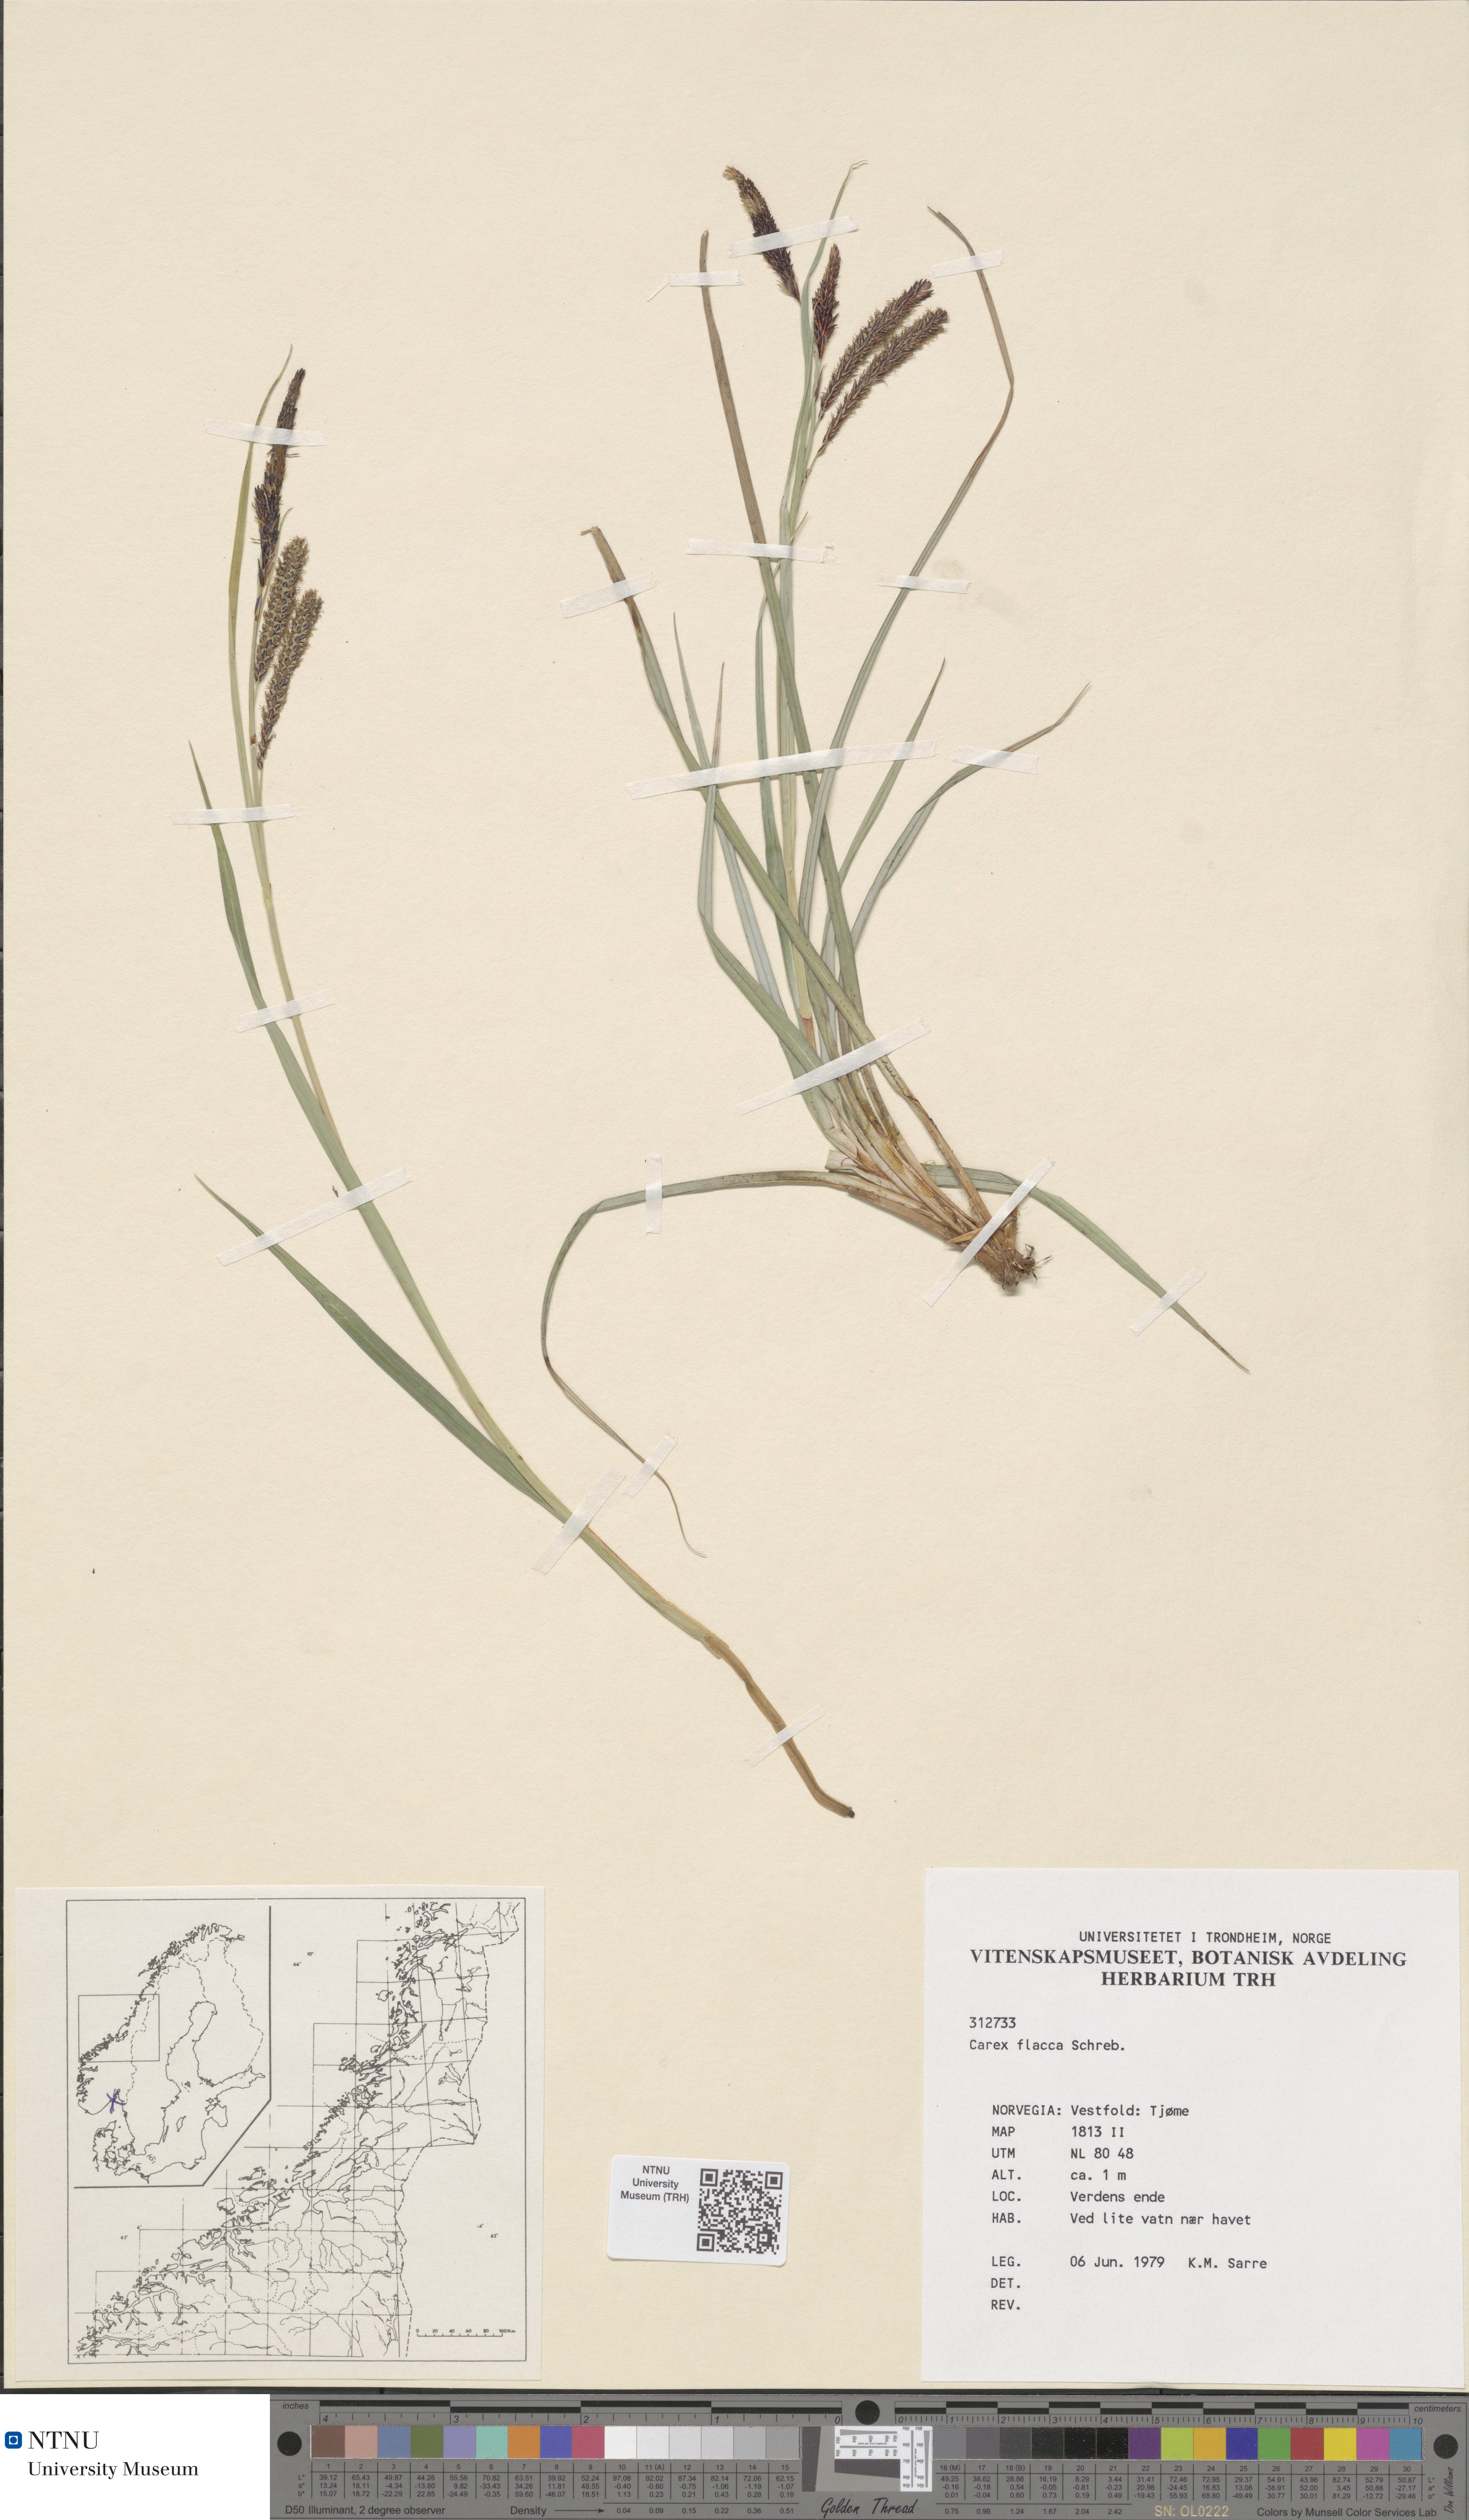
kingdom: Plantae
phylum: Tracheophyta
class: Liliopsida
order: Poales
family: Cyperaceae
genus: Carex
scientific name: Carex flacca
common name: Glaucous sedge
